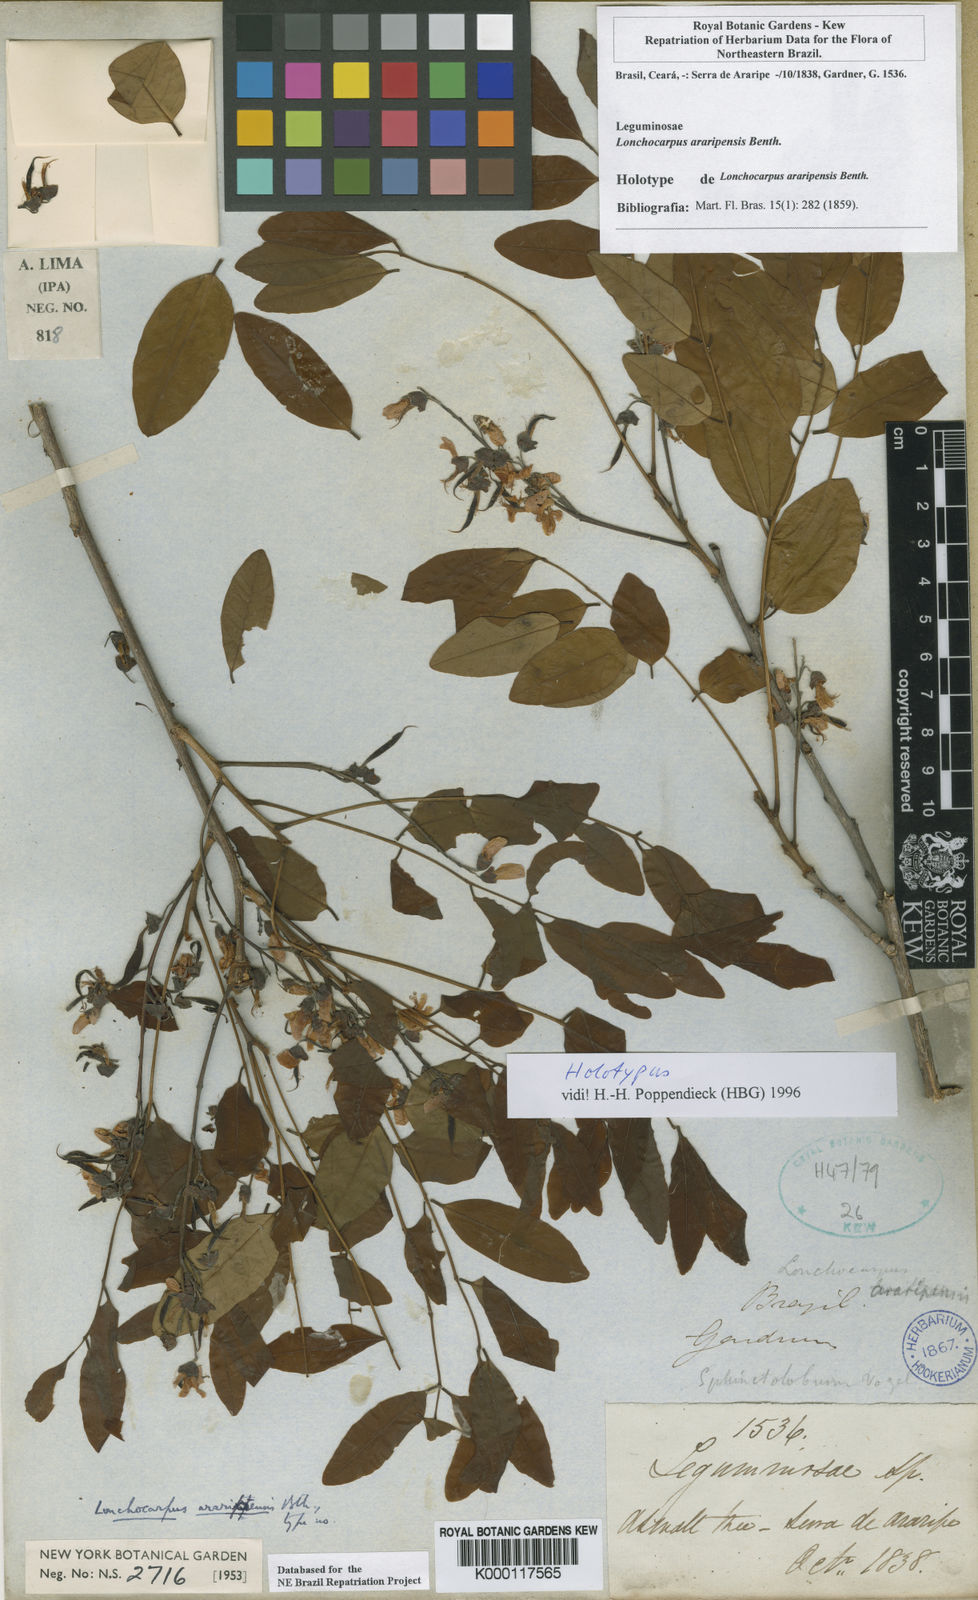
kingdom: Plantae
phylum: Tracheophyta
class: Magnoliopsida
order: Fabales
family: Fabaceae
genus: Dahlstedtia
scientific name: Dahlstedtia araripensis
